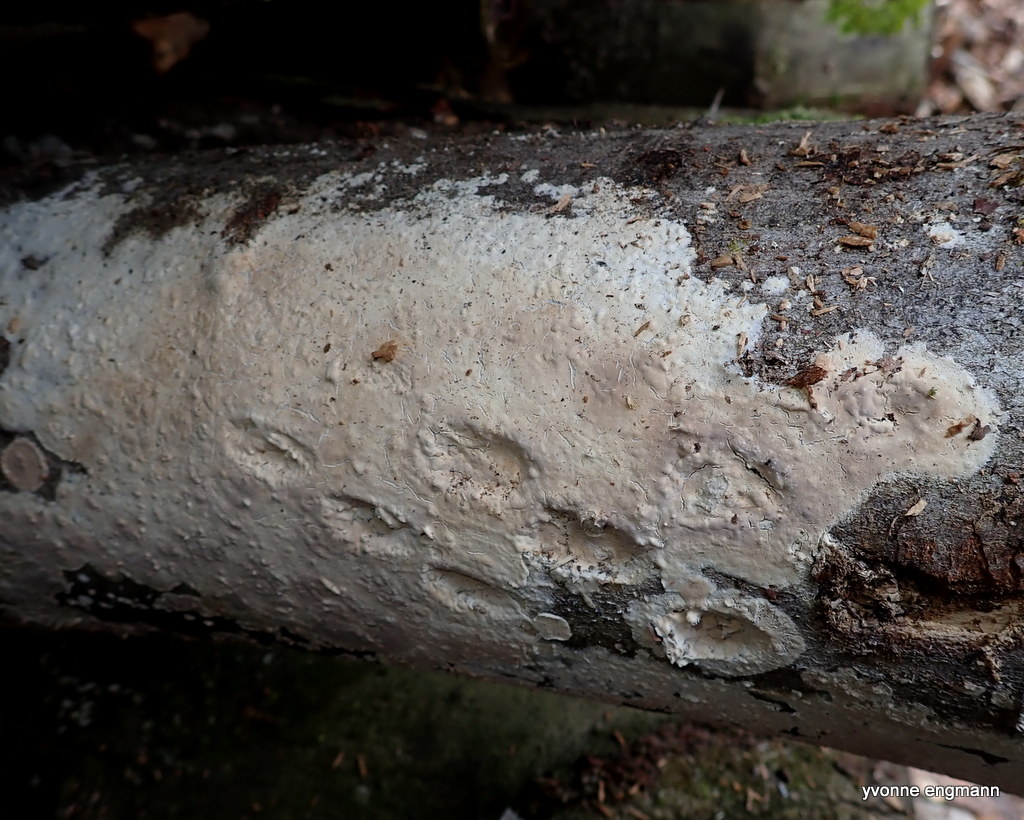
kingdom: Fungi
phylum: Basidiomycota
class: Agaricomycetes
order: Corticiales
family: Corticiaceae
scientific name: Corticiaceae
